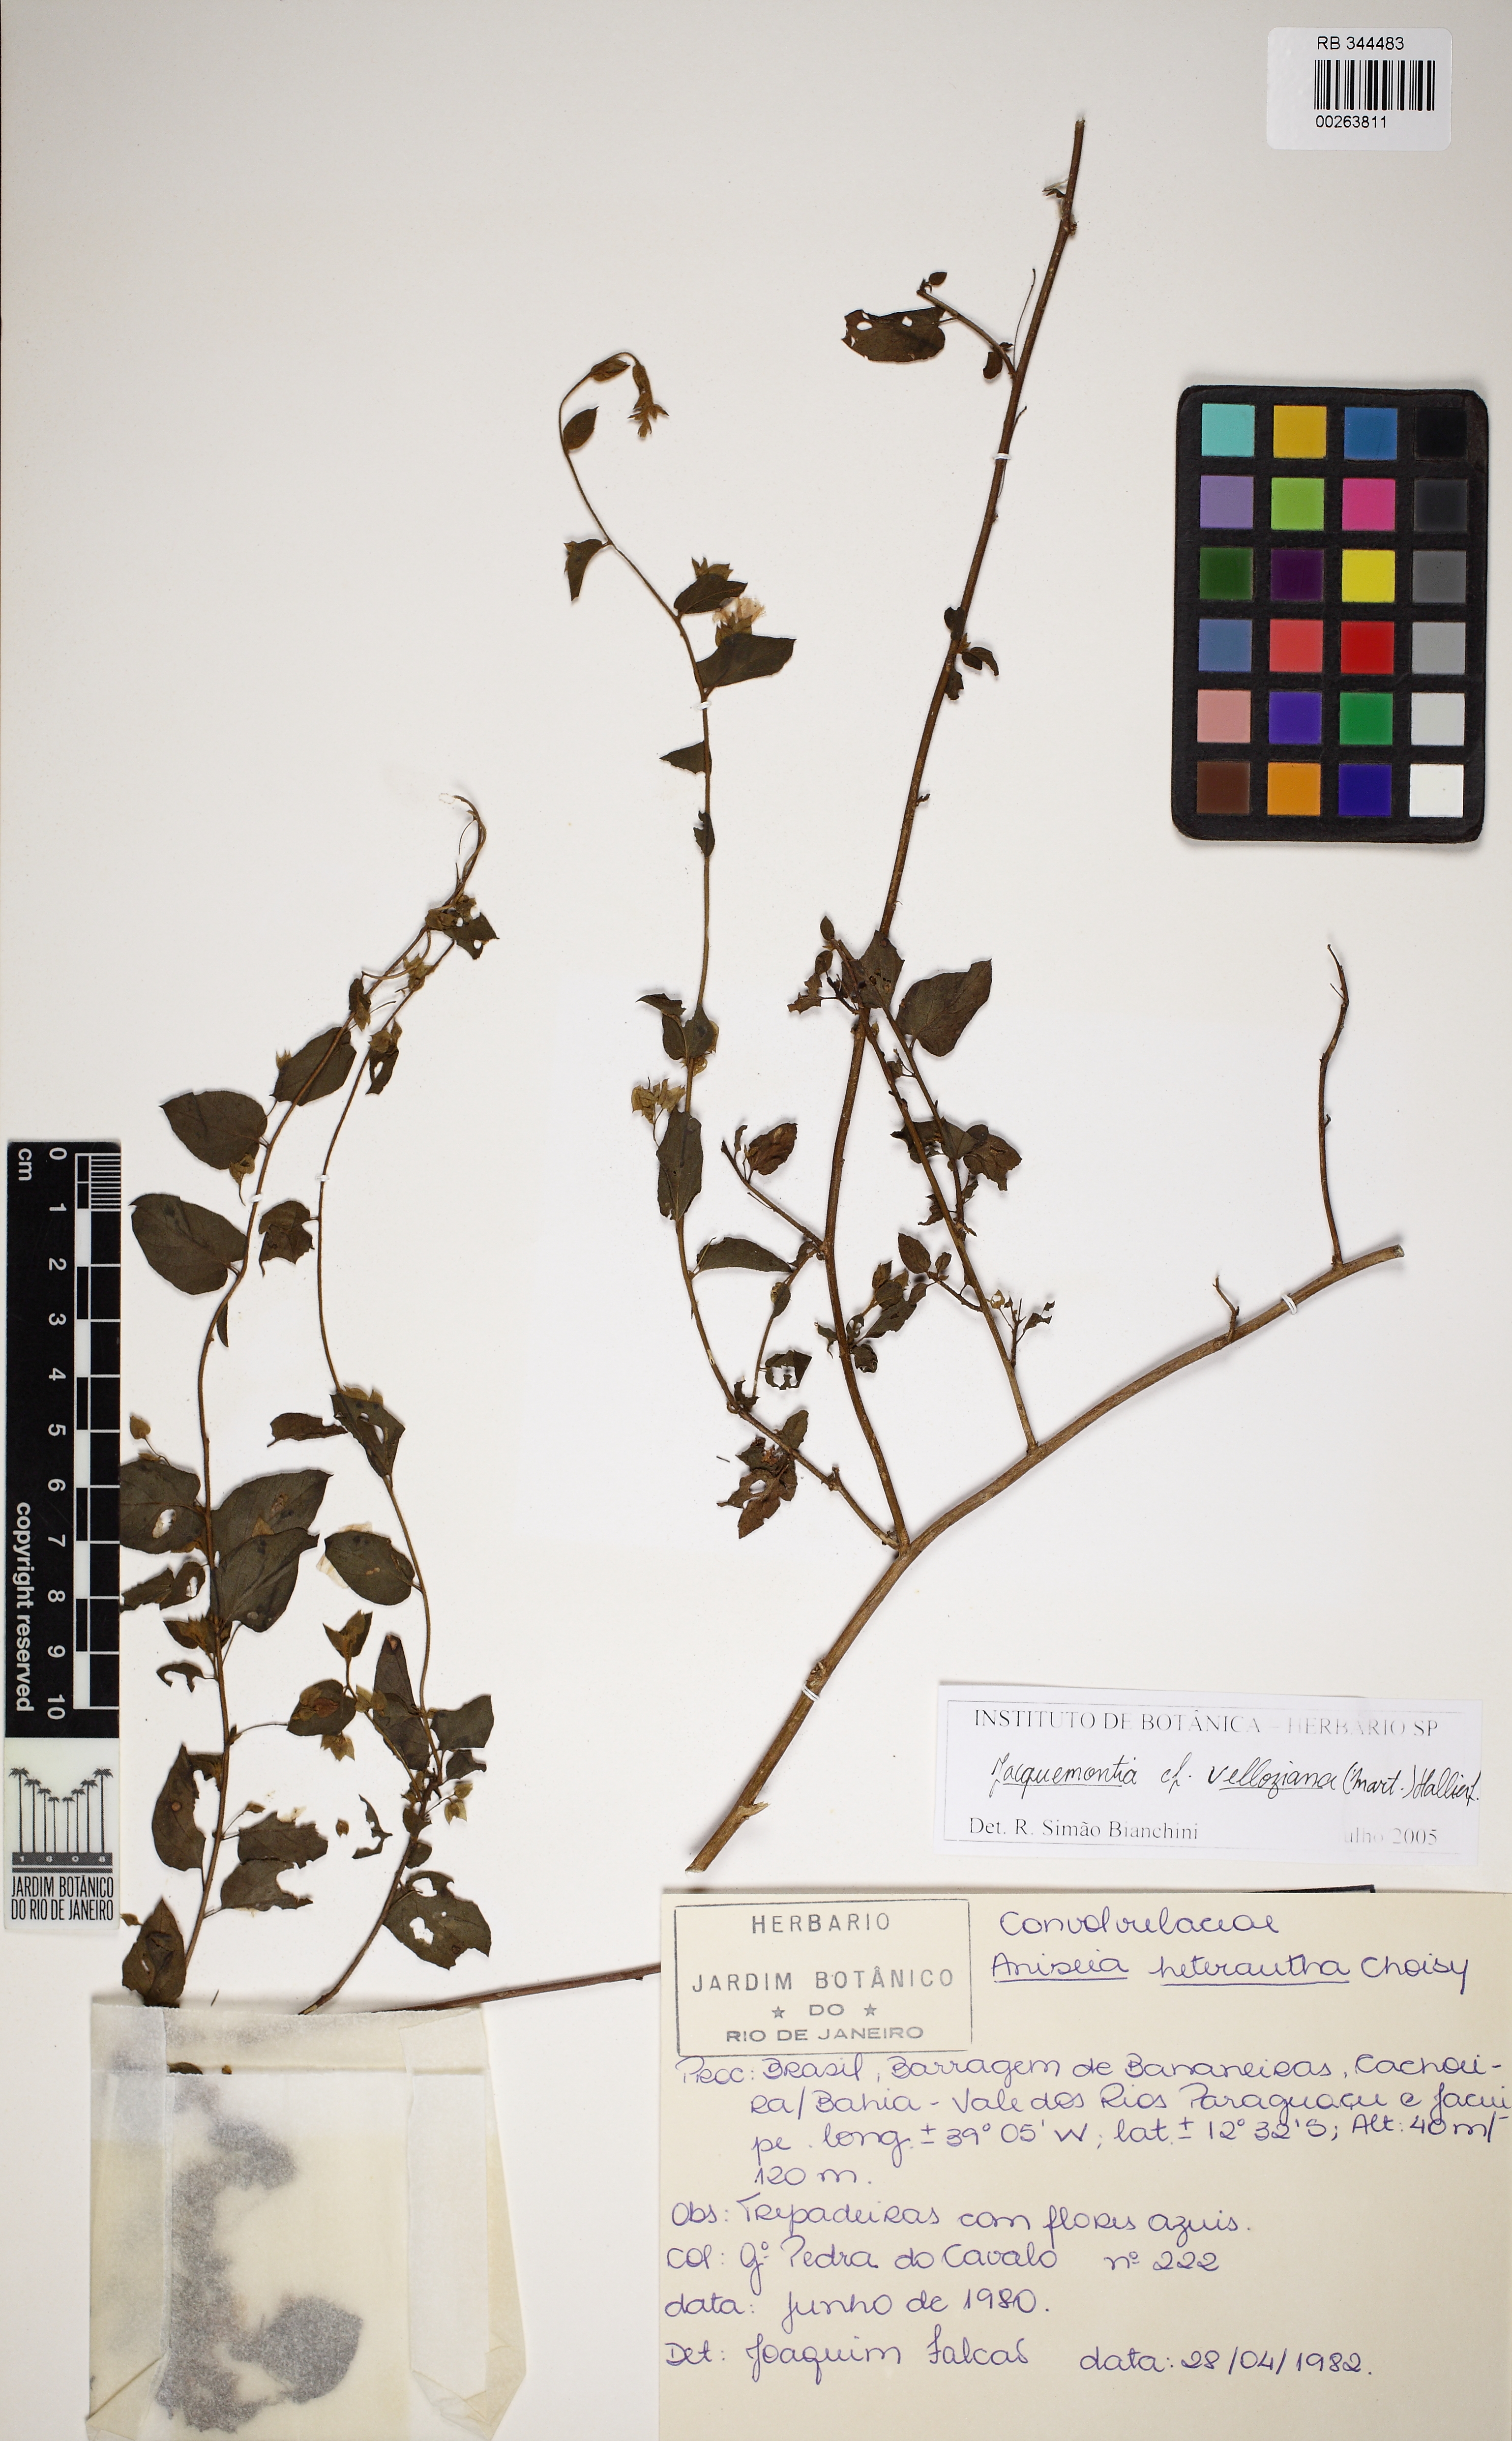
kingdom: Plantae
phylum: Tracheophyta
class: Magnoliopsida
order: Solanales
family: Convolvulaceae
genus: Jacquemontia
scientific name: Jacquemontia velloziana
